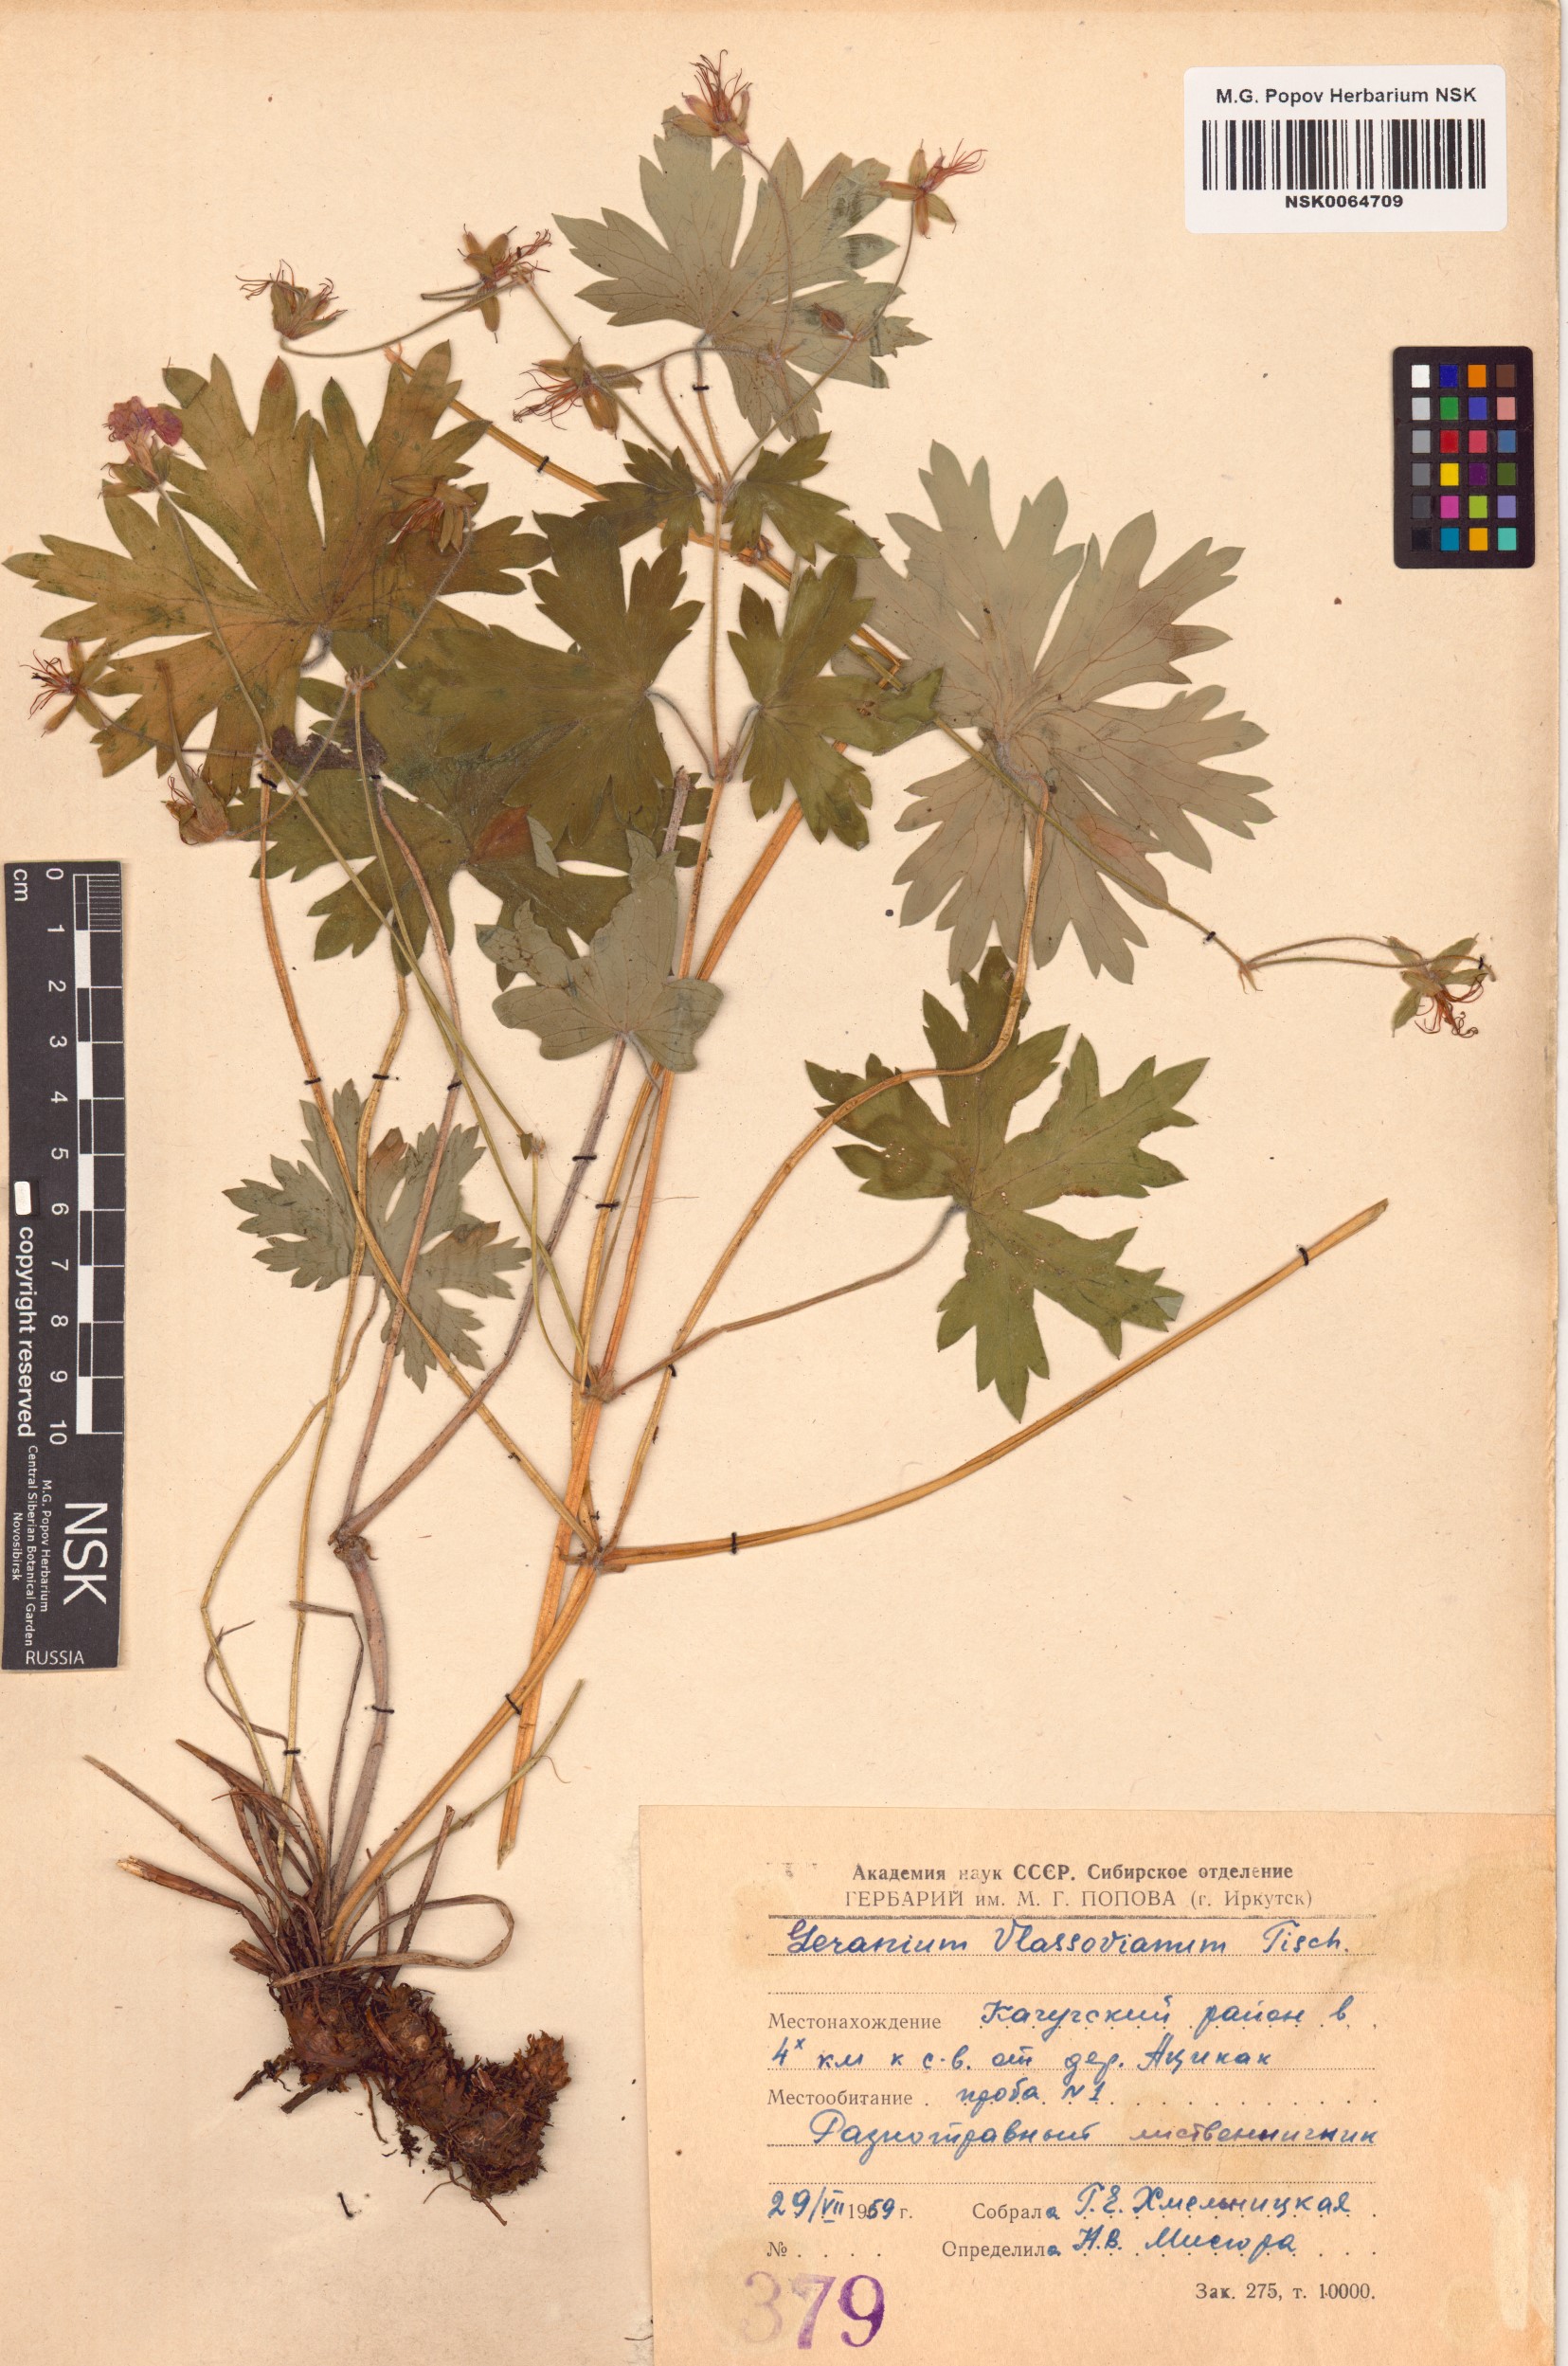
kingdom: Plantae
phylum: Tracheophyta
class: Magnoliopsida
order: Geraniales
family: Geraniaceae
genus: Geranium
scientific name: Geranium wlassovianum
